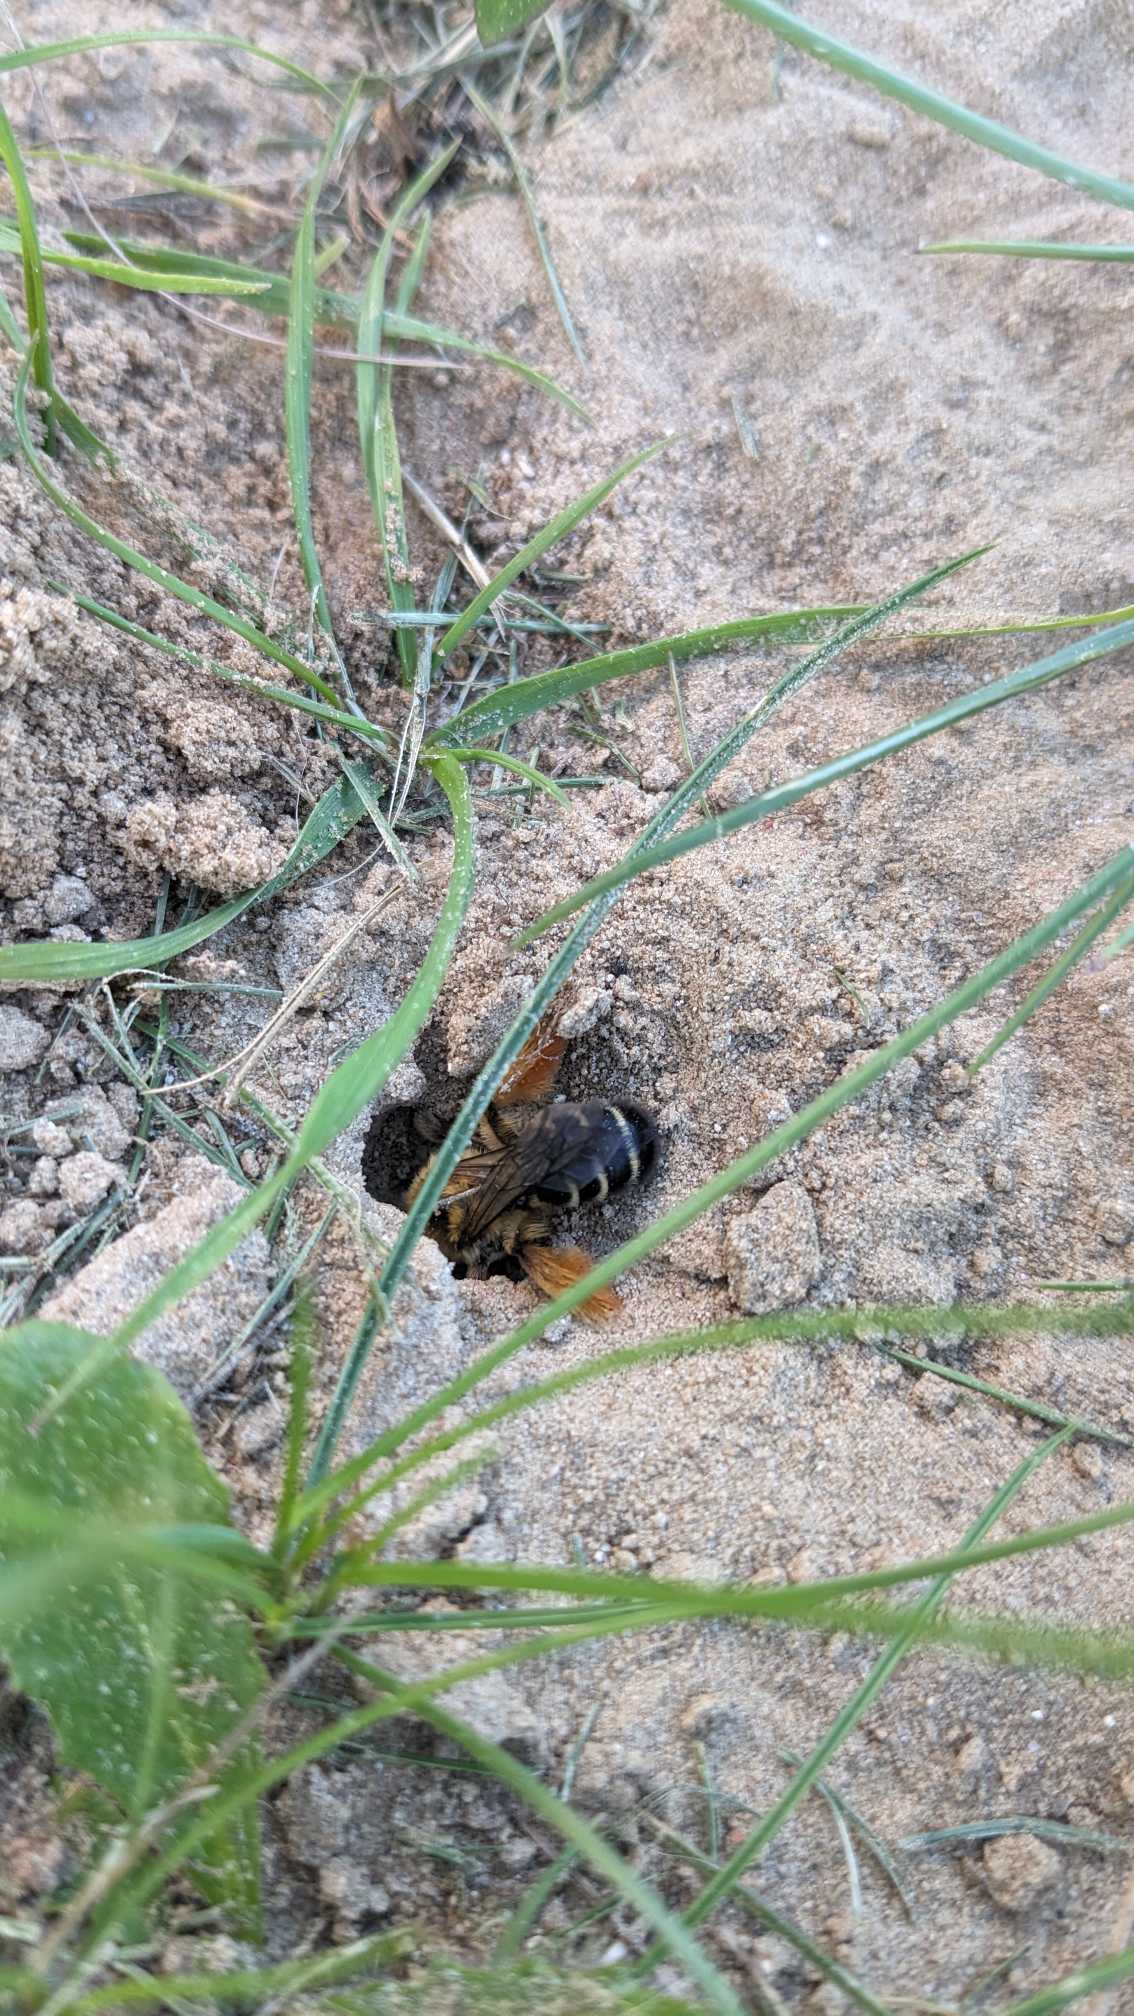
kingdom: Animalia
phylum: Arthropoda
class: Insecta
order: Hymenoptera
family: Melittidae
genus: Dasypoda
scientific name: Dasypoda hirtipes
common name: Pragtbuksebi
